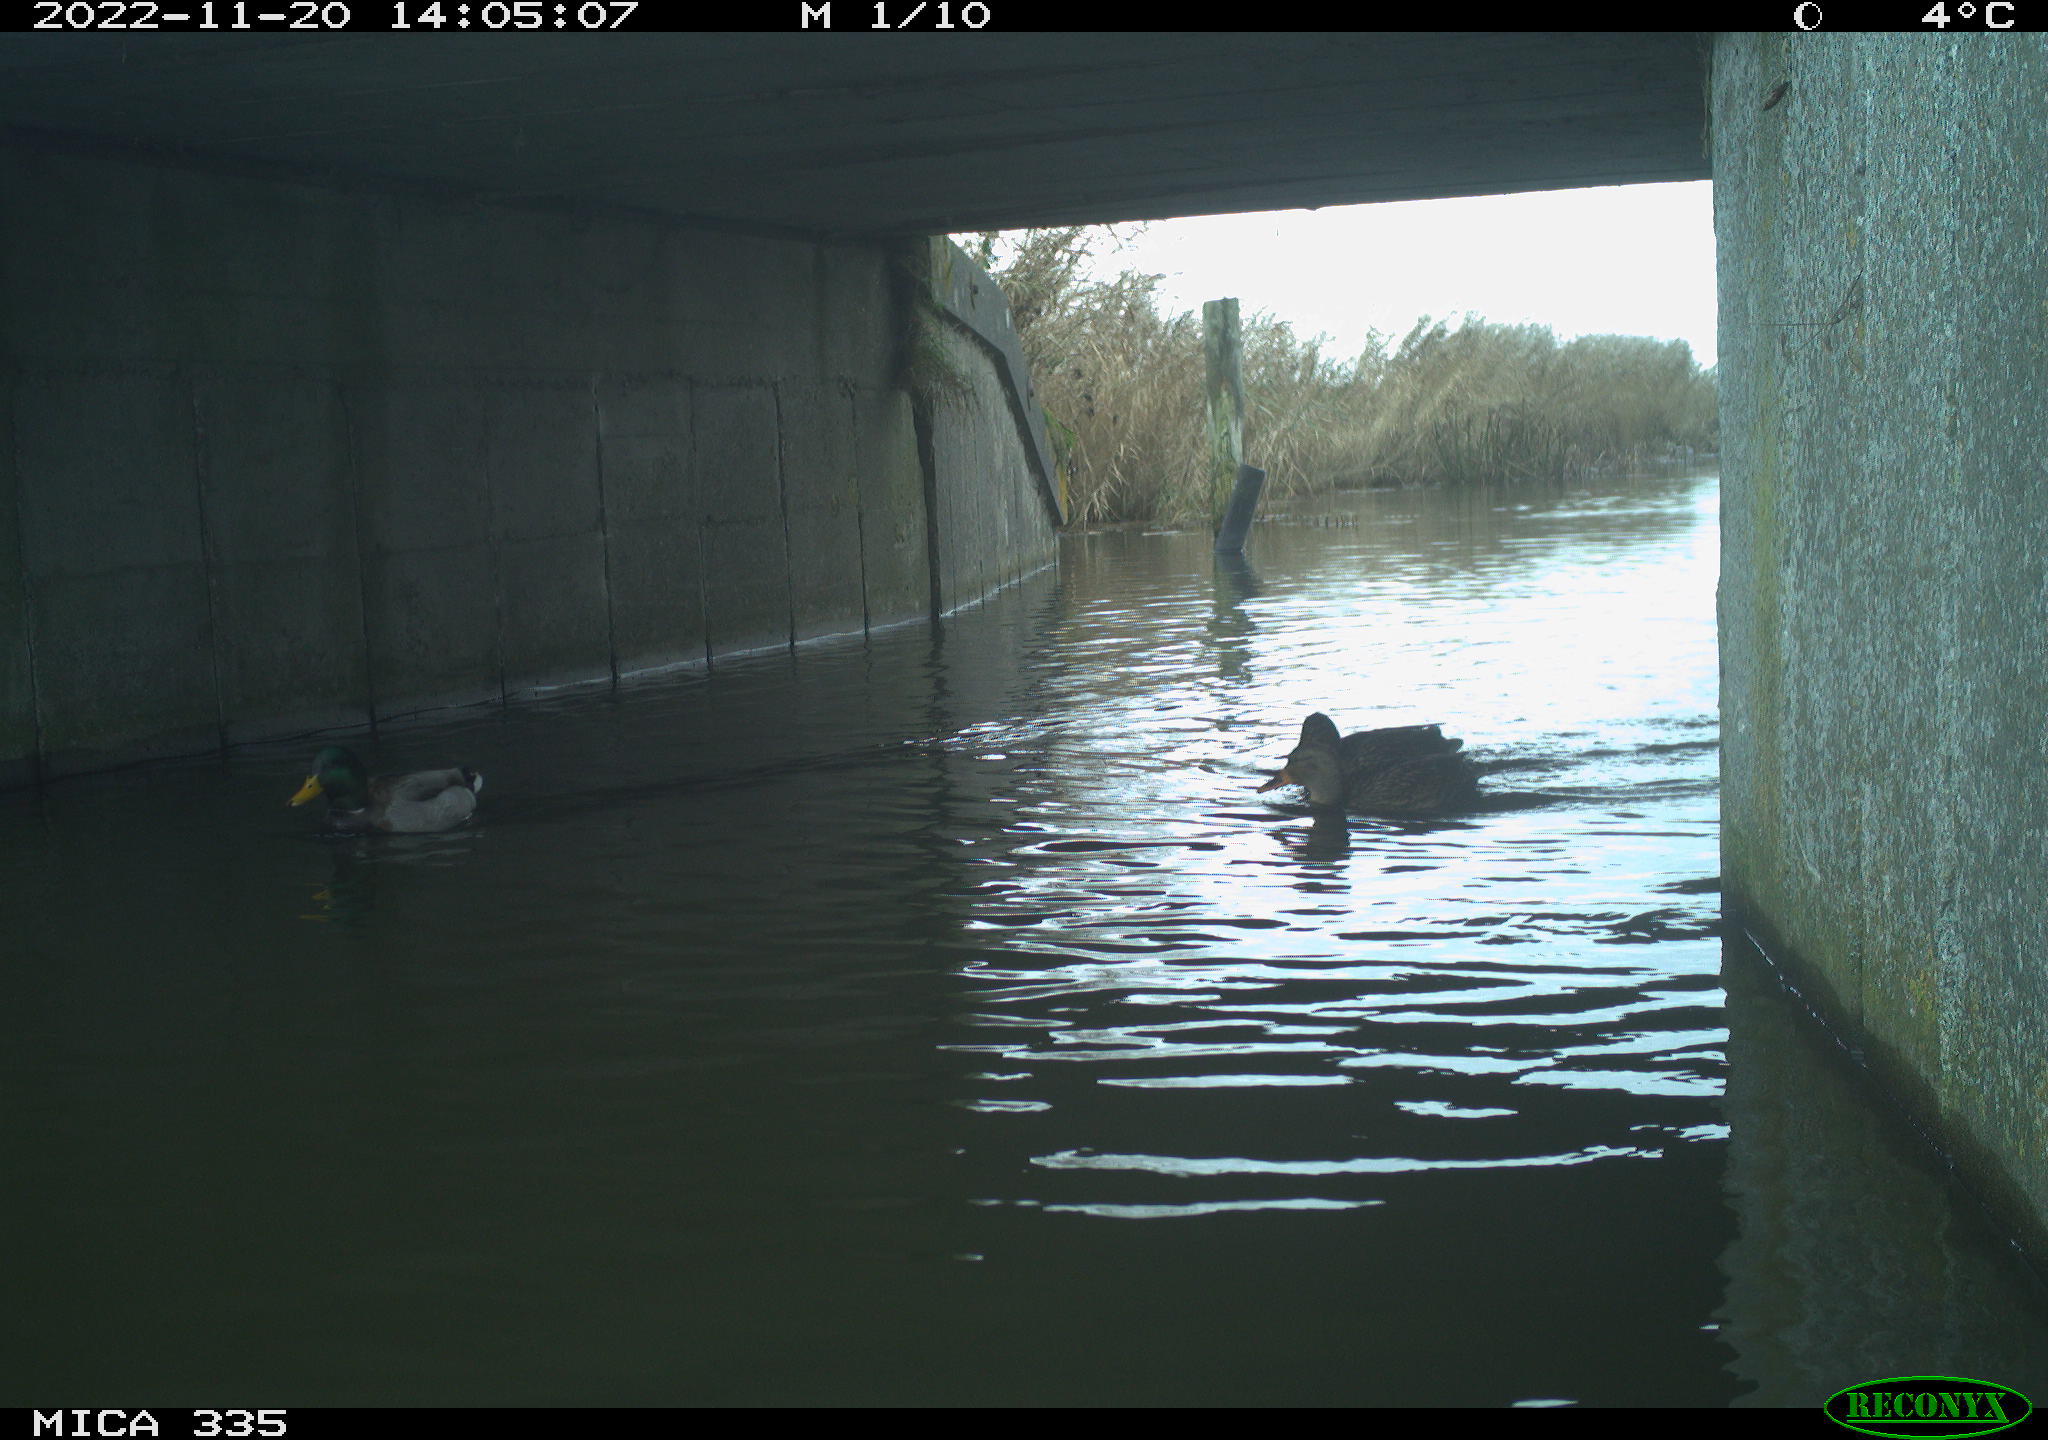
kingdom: Animalia
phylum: Chordata
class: Aves
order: Anseriformes
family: Anatidae
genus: Anas
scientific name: Anas
